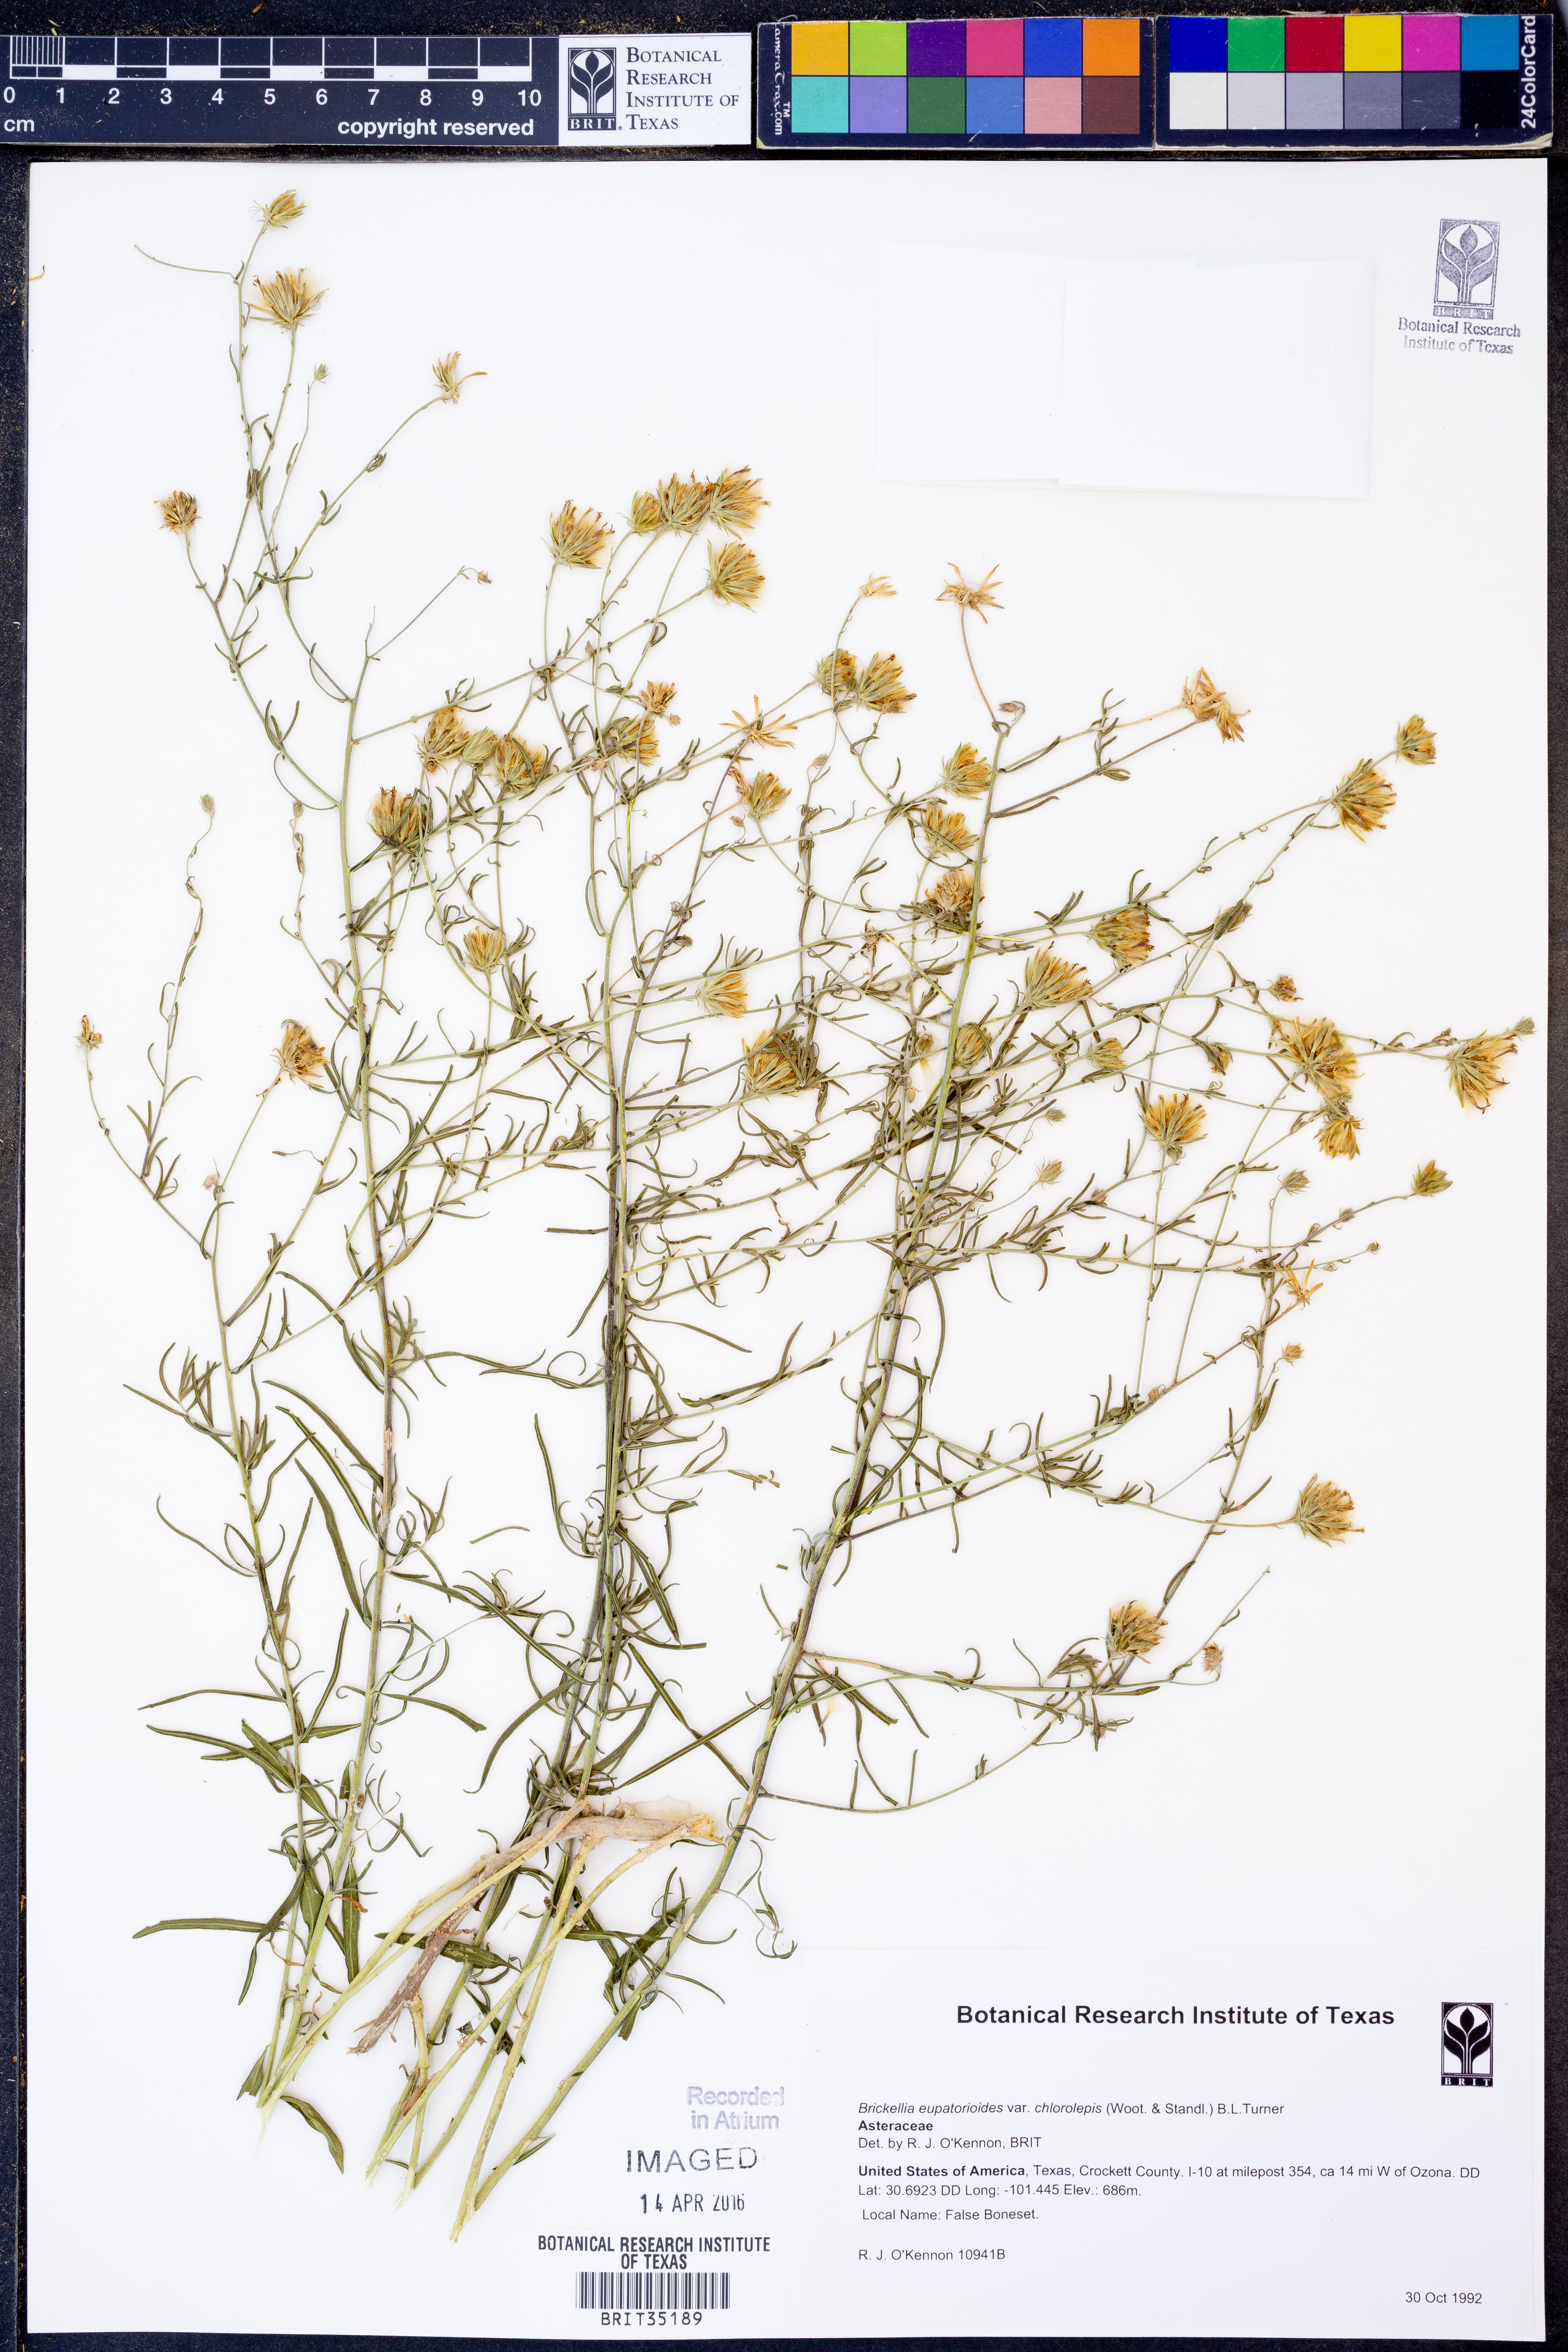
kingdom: Plantae
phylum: Tracheophyta
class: Magnoliopsida
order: Asterales
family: Asteraceae
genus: Brickellia
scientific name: Brickellia leptophylla
